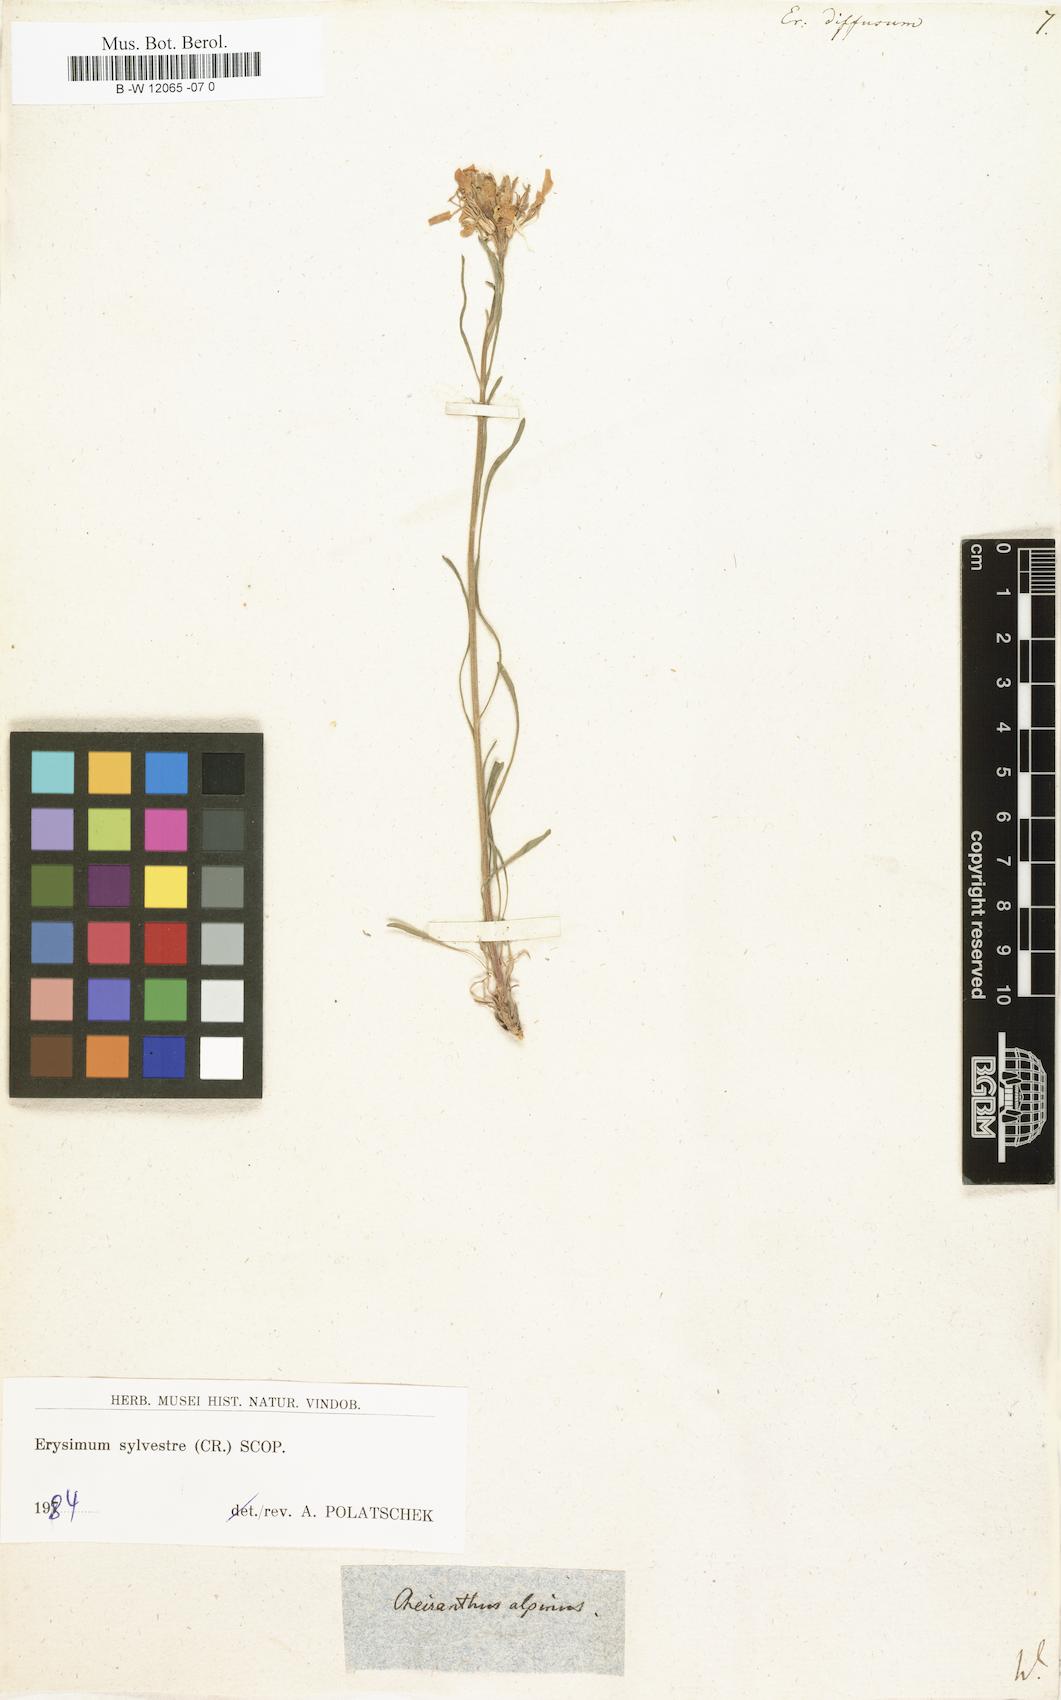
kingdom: Plantae
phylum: Tracheophyta
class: Magnoliopsida
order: Brassicales
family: Brassicaceae
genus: Erysimum
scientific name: Erysimum diffusum
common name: Diffuse wallflower
